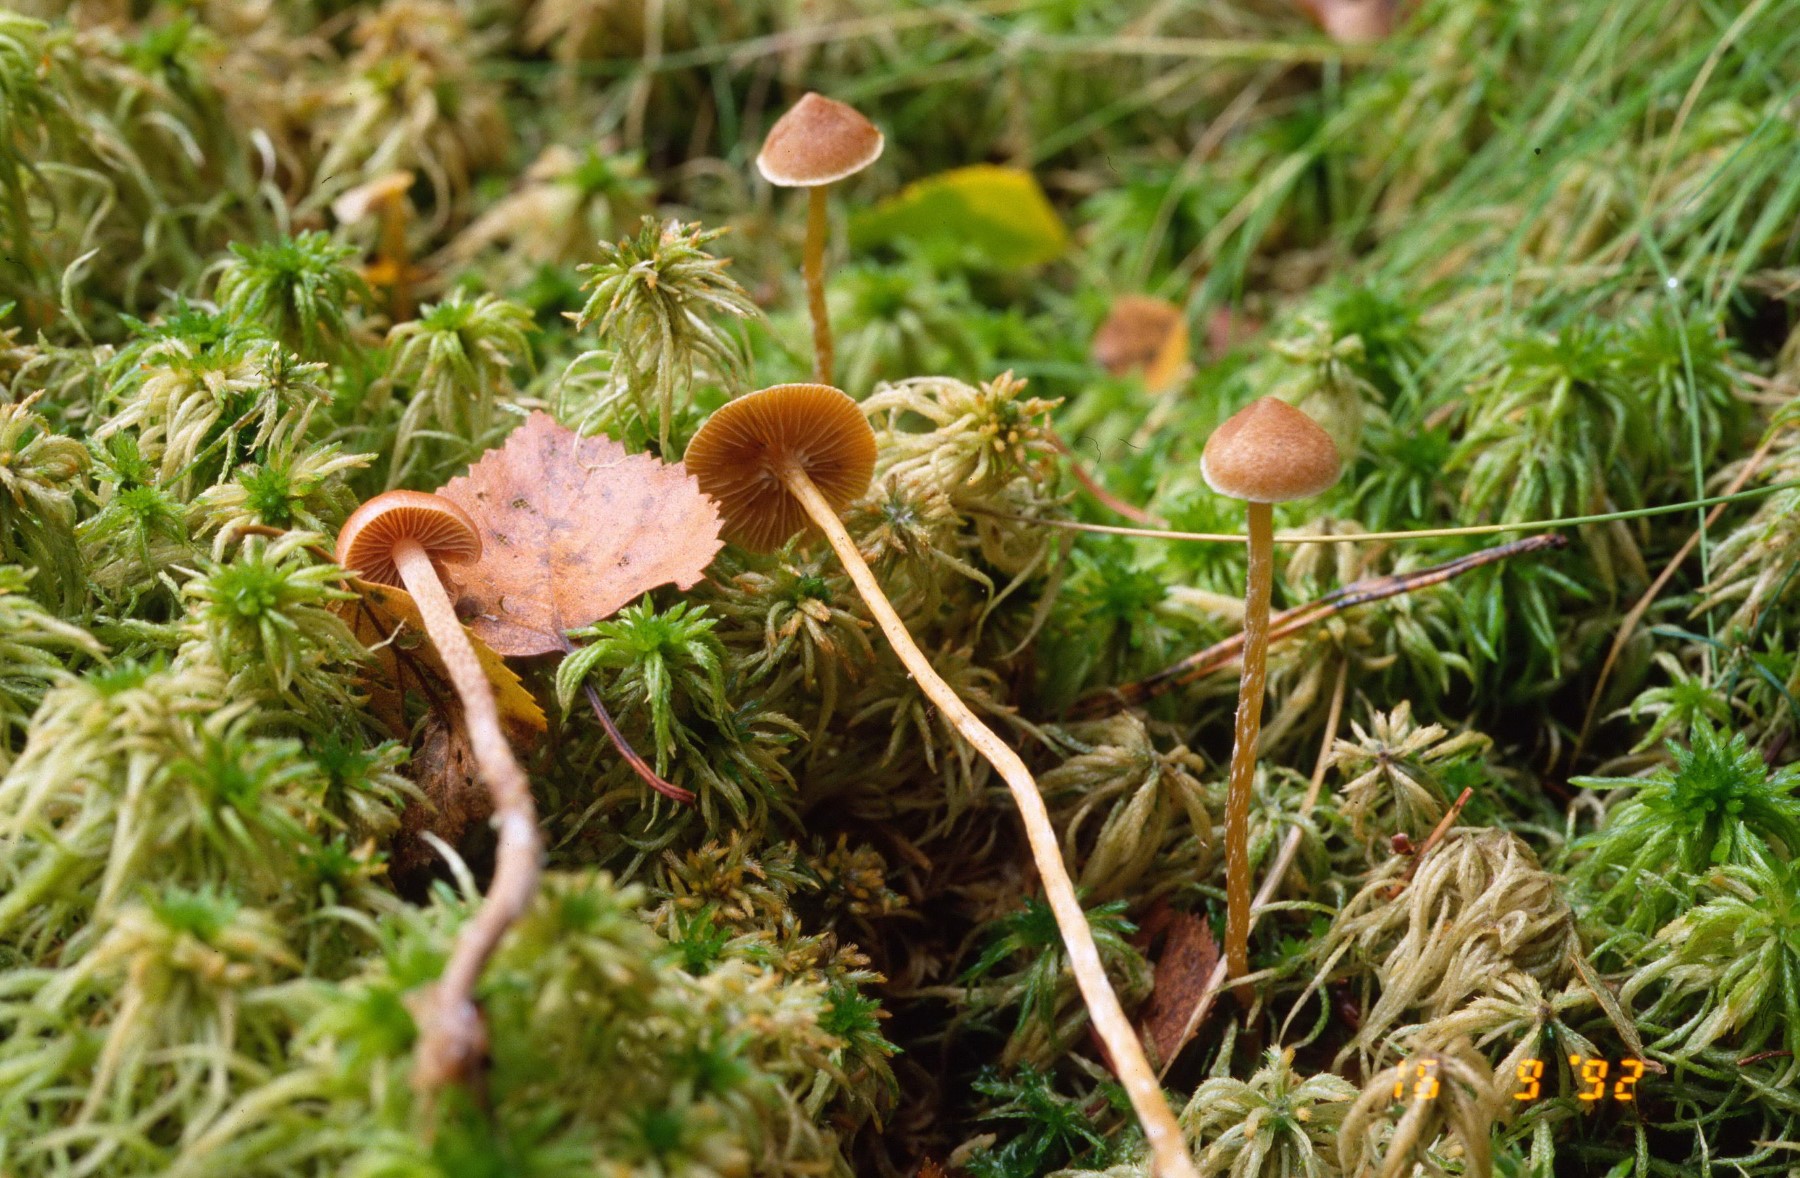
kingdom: Fungi
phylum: Basidiomycota
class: Agaricomycetes
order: Agaricales
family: Hymenogastraceae
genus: Galerina
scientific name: Galerina paludosa
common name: mose-hjelmhat
